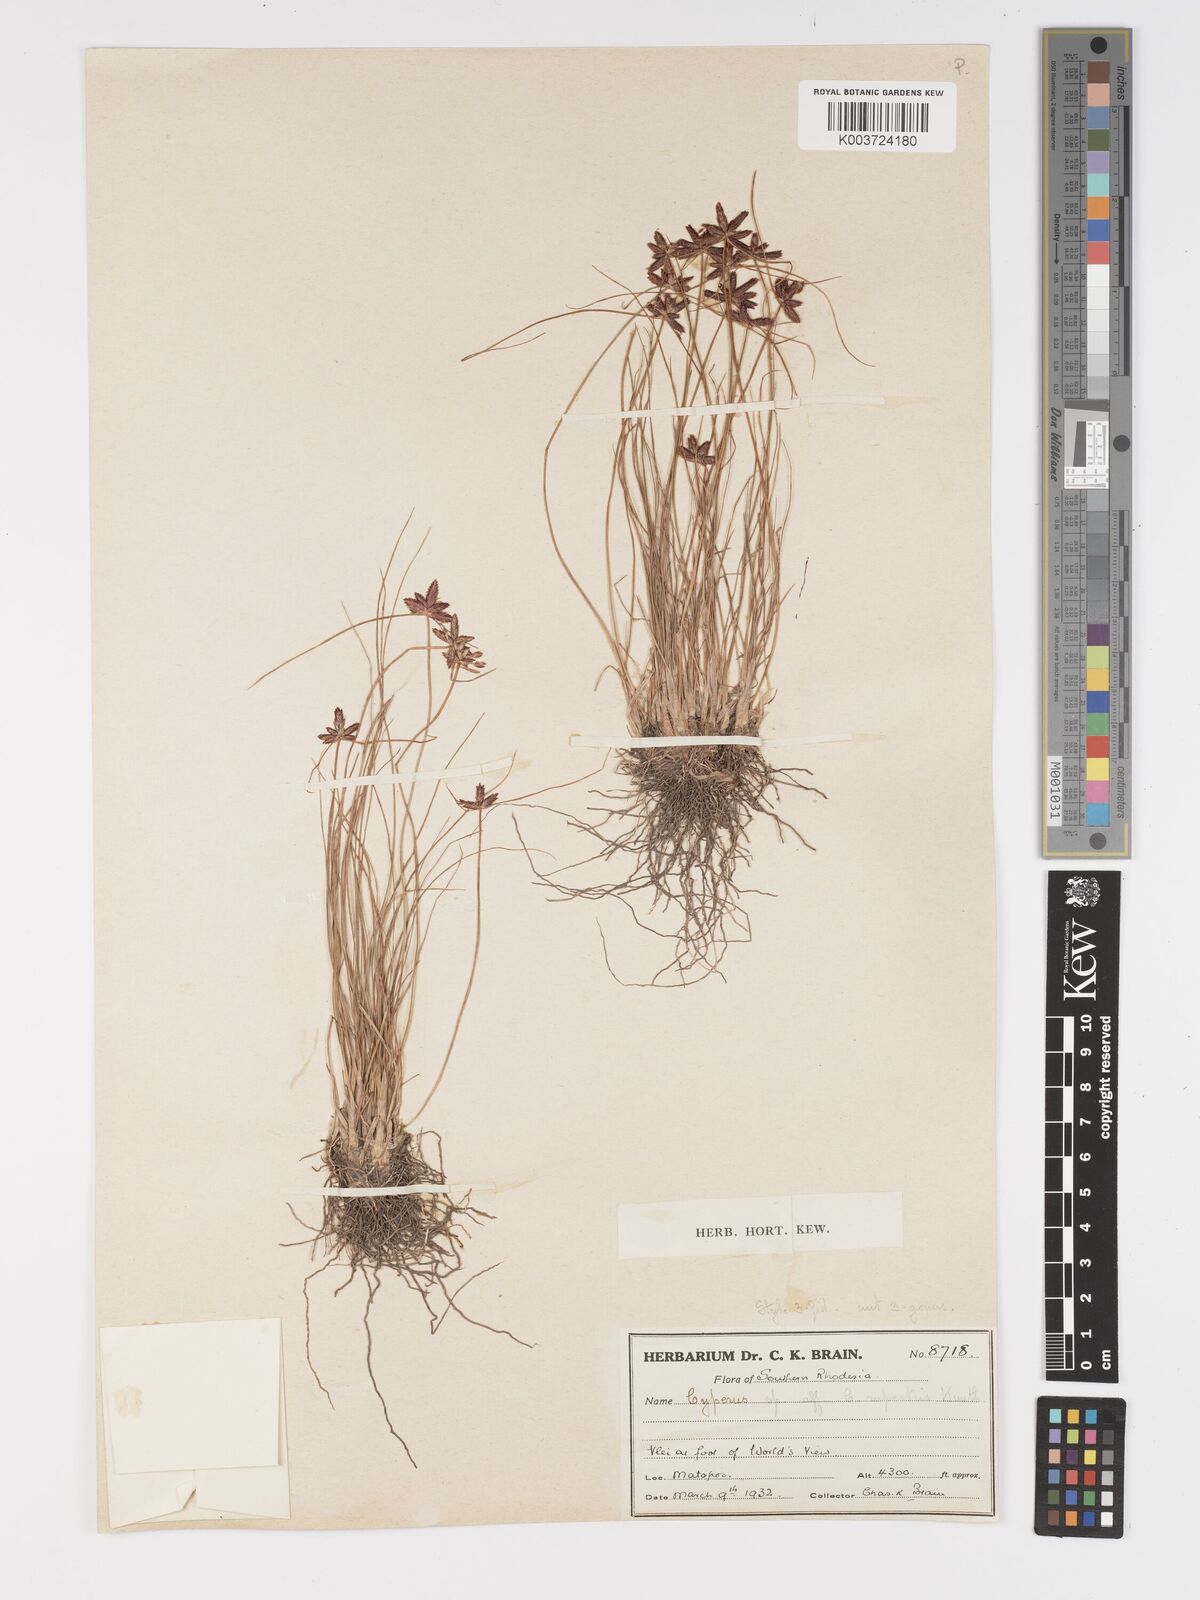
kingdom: Plantae
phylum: Tracheophyta
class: Liliopsida
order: Poales
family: Cyperaceae
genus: Cyperus
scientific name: Cyperus rupestris
